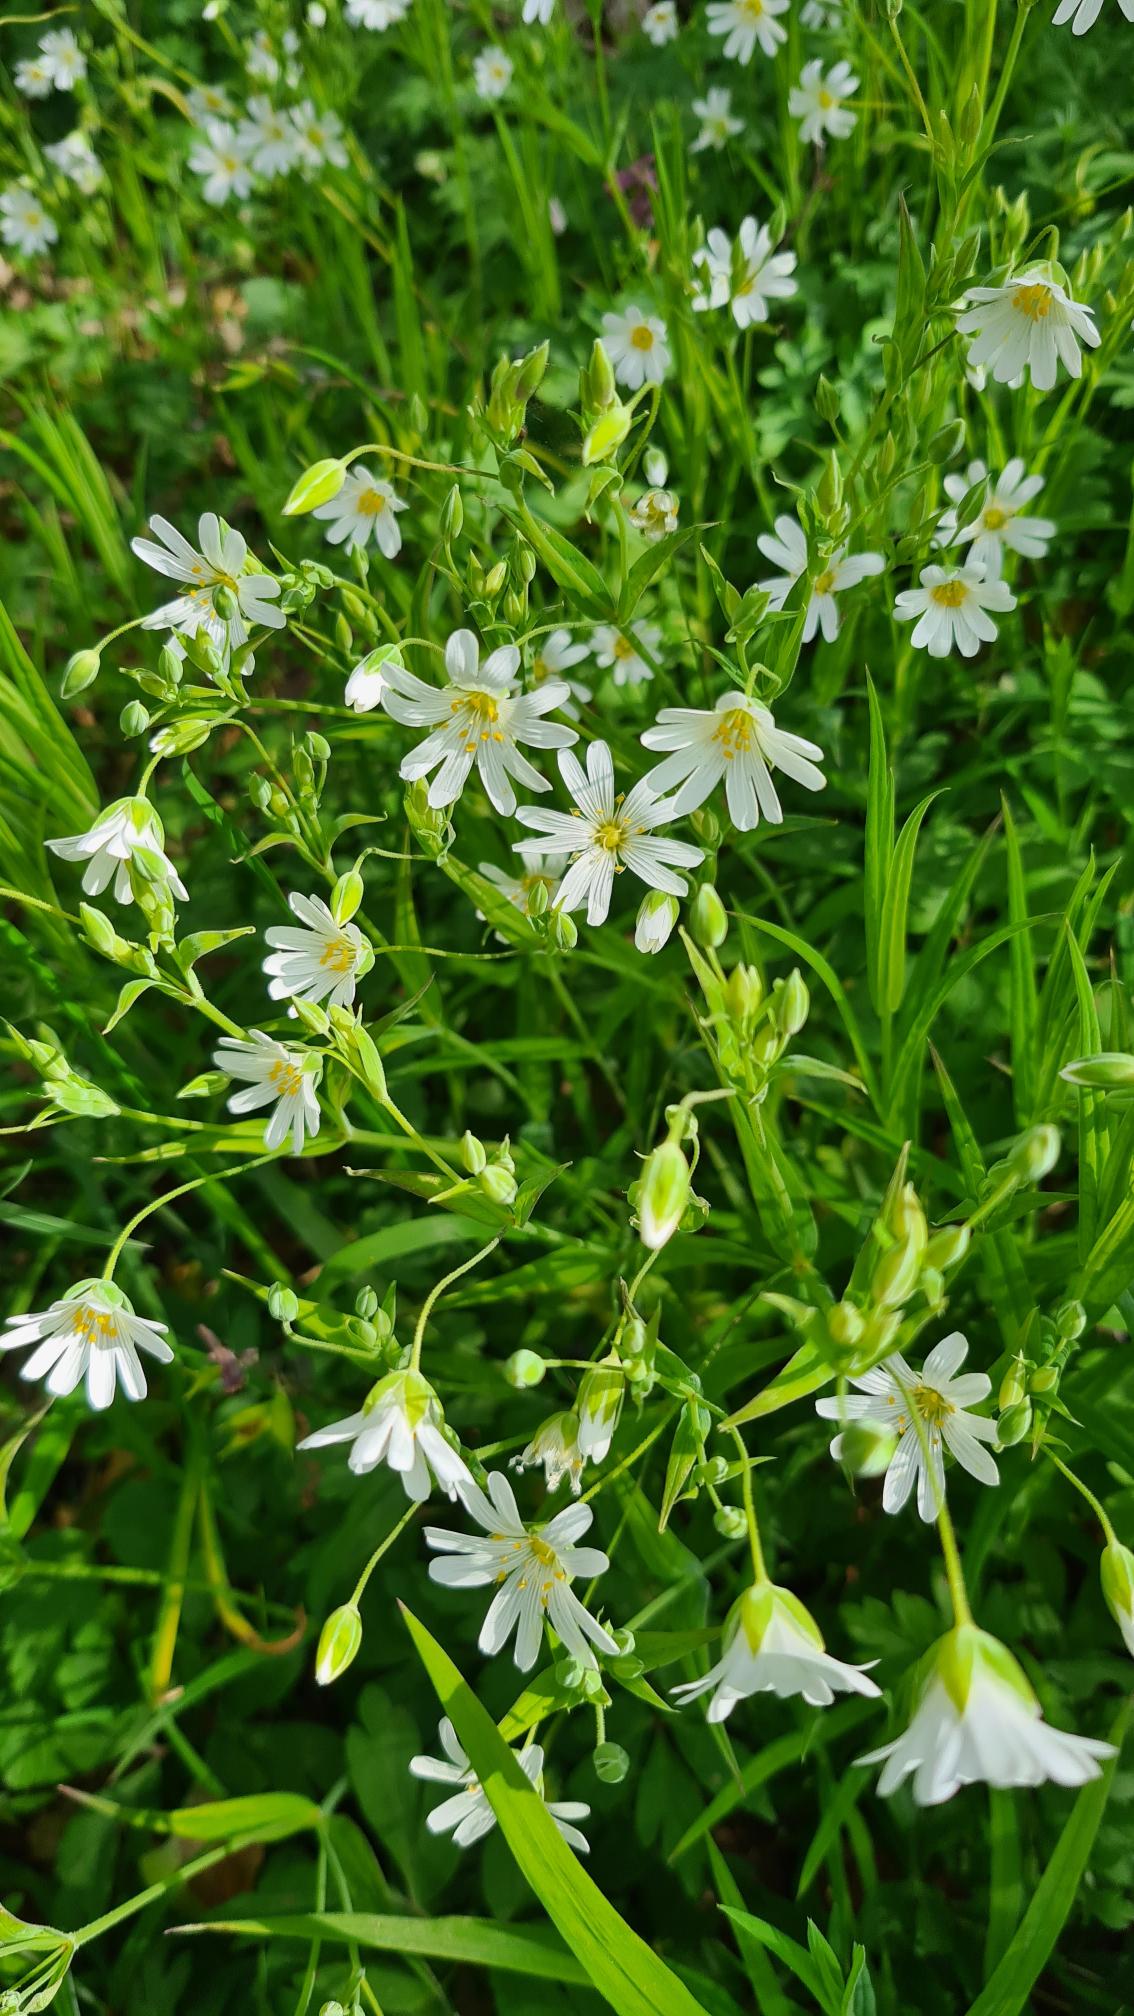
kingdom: Plantae
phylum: Tracheophyta
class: Magnoliopsida
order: Caryophyllales
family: Caryophyllaceae
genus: Rabelera
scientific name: Rabelera holostea
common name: Stor fladstjerne
